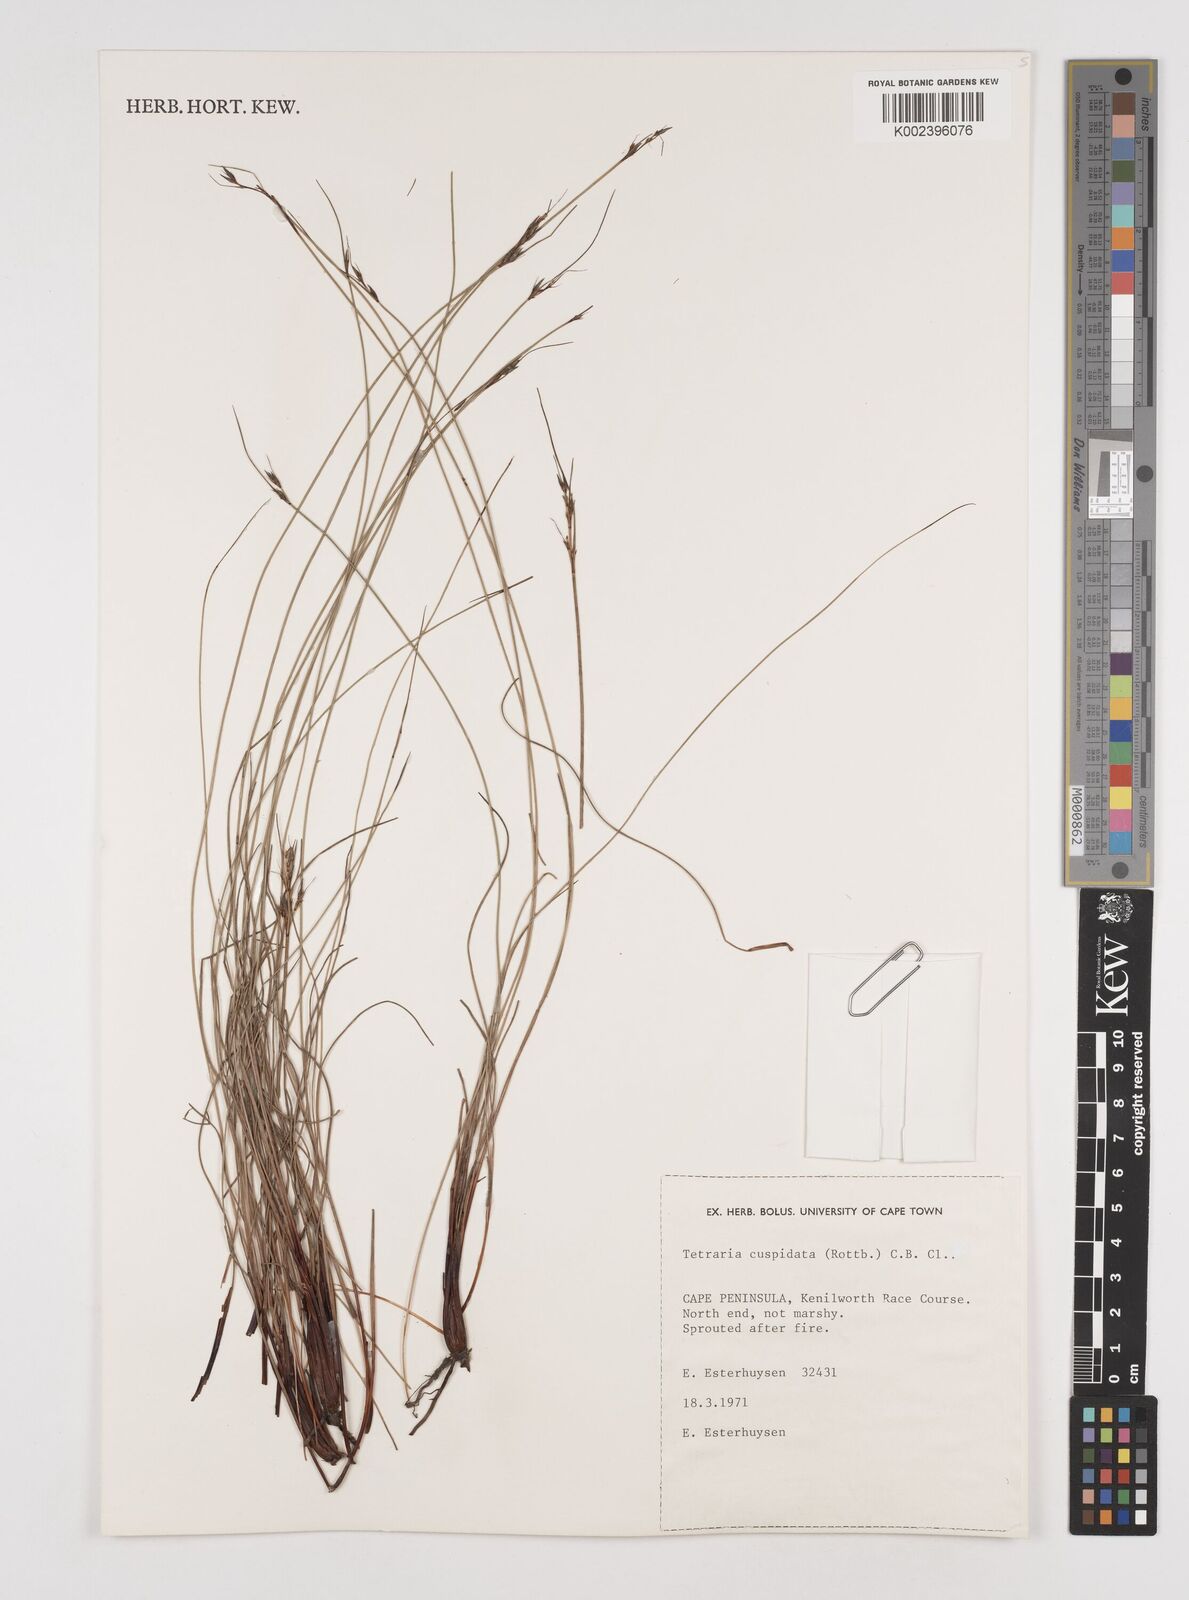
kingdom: Plantae
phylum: Tracheophyta
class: Liliopsida
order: Poales
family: Cyperaceae
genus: Schoenus
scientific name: Schoenus cuspidatus
